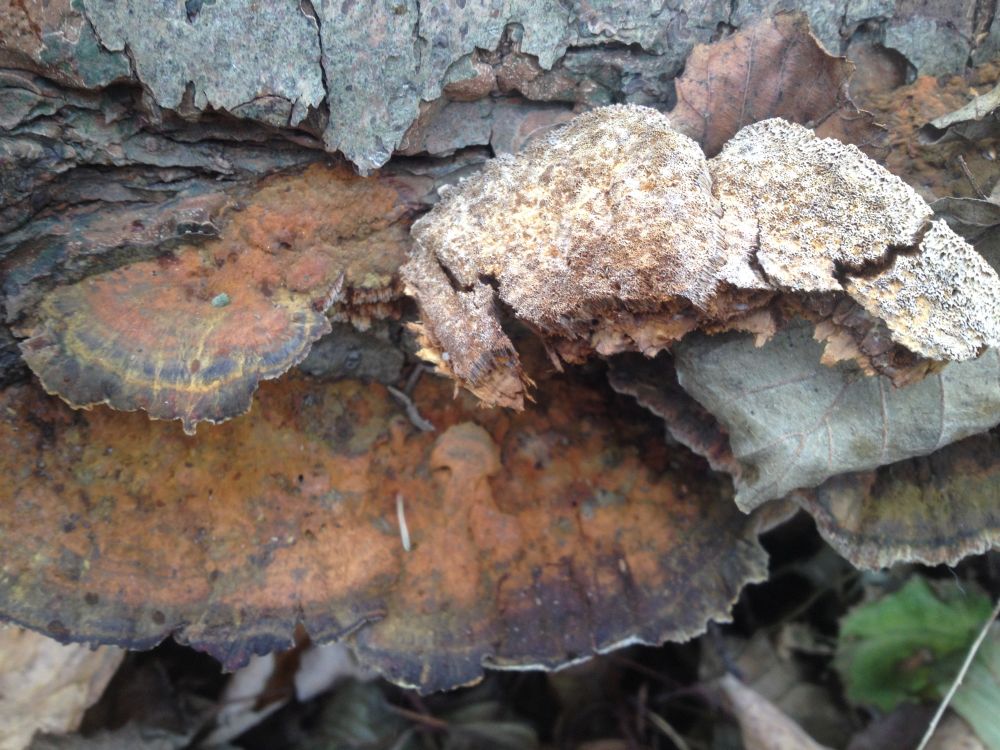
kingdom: Fungi
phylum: Basidiomycota
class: Agaricomycetes
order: Hymenochaetales
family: Hymenochaetaceae
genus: Xanthoporia
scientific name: Xanthoporia radiata
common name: elle-spejlporesvamp
